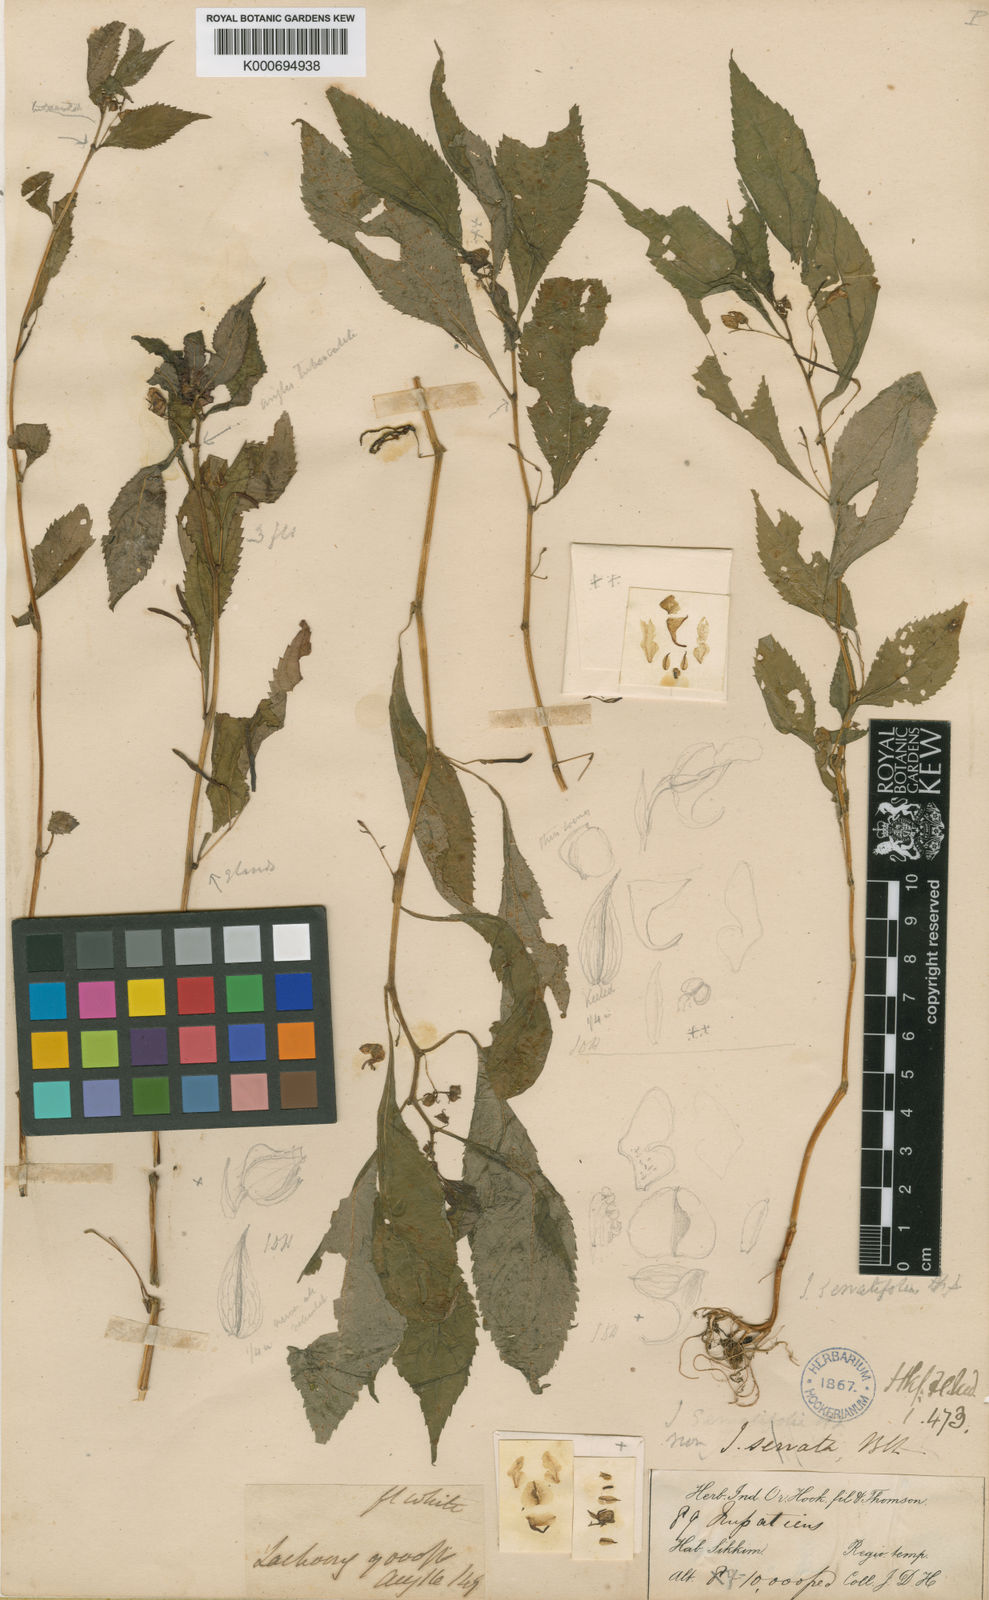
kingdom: Plantae
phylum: Tracheophyta
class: Magnoliopsida
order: Ericales
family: Balsaminaceae
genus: Impatiens
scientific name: Impatiens serratifolia
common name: The lachung balsam
